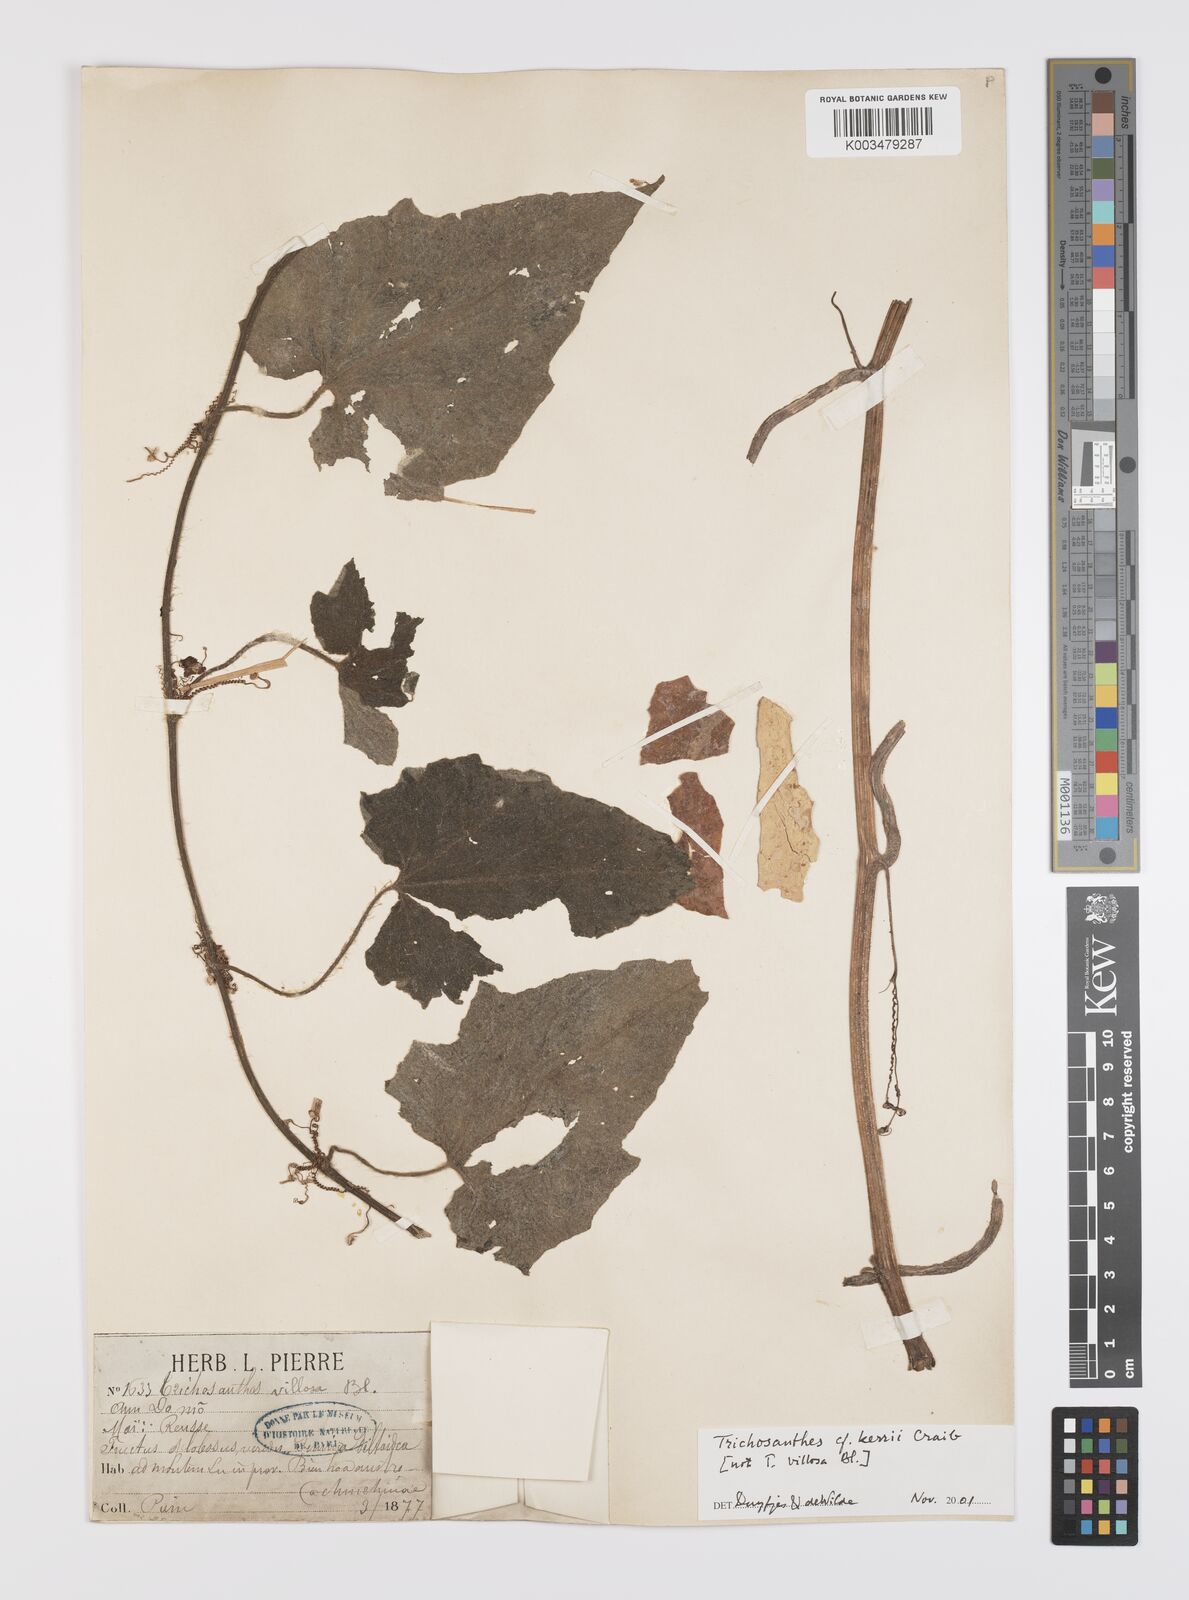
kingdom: Plantae
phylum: Tracheophyta
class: Magnoliopsida
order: Cucurbitales
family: Cucurbitaceae
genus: Trichosanthes
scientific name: Trichosanthes kerrii
